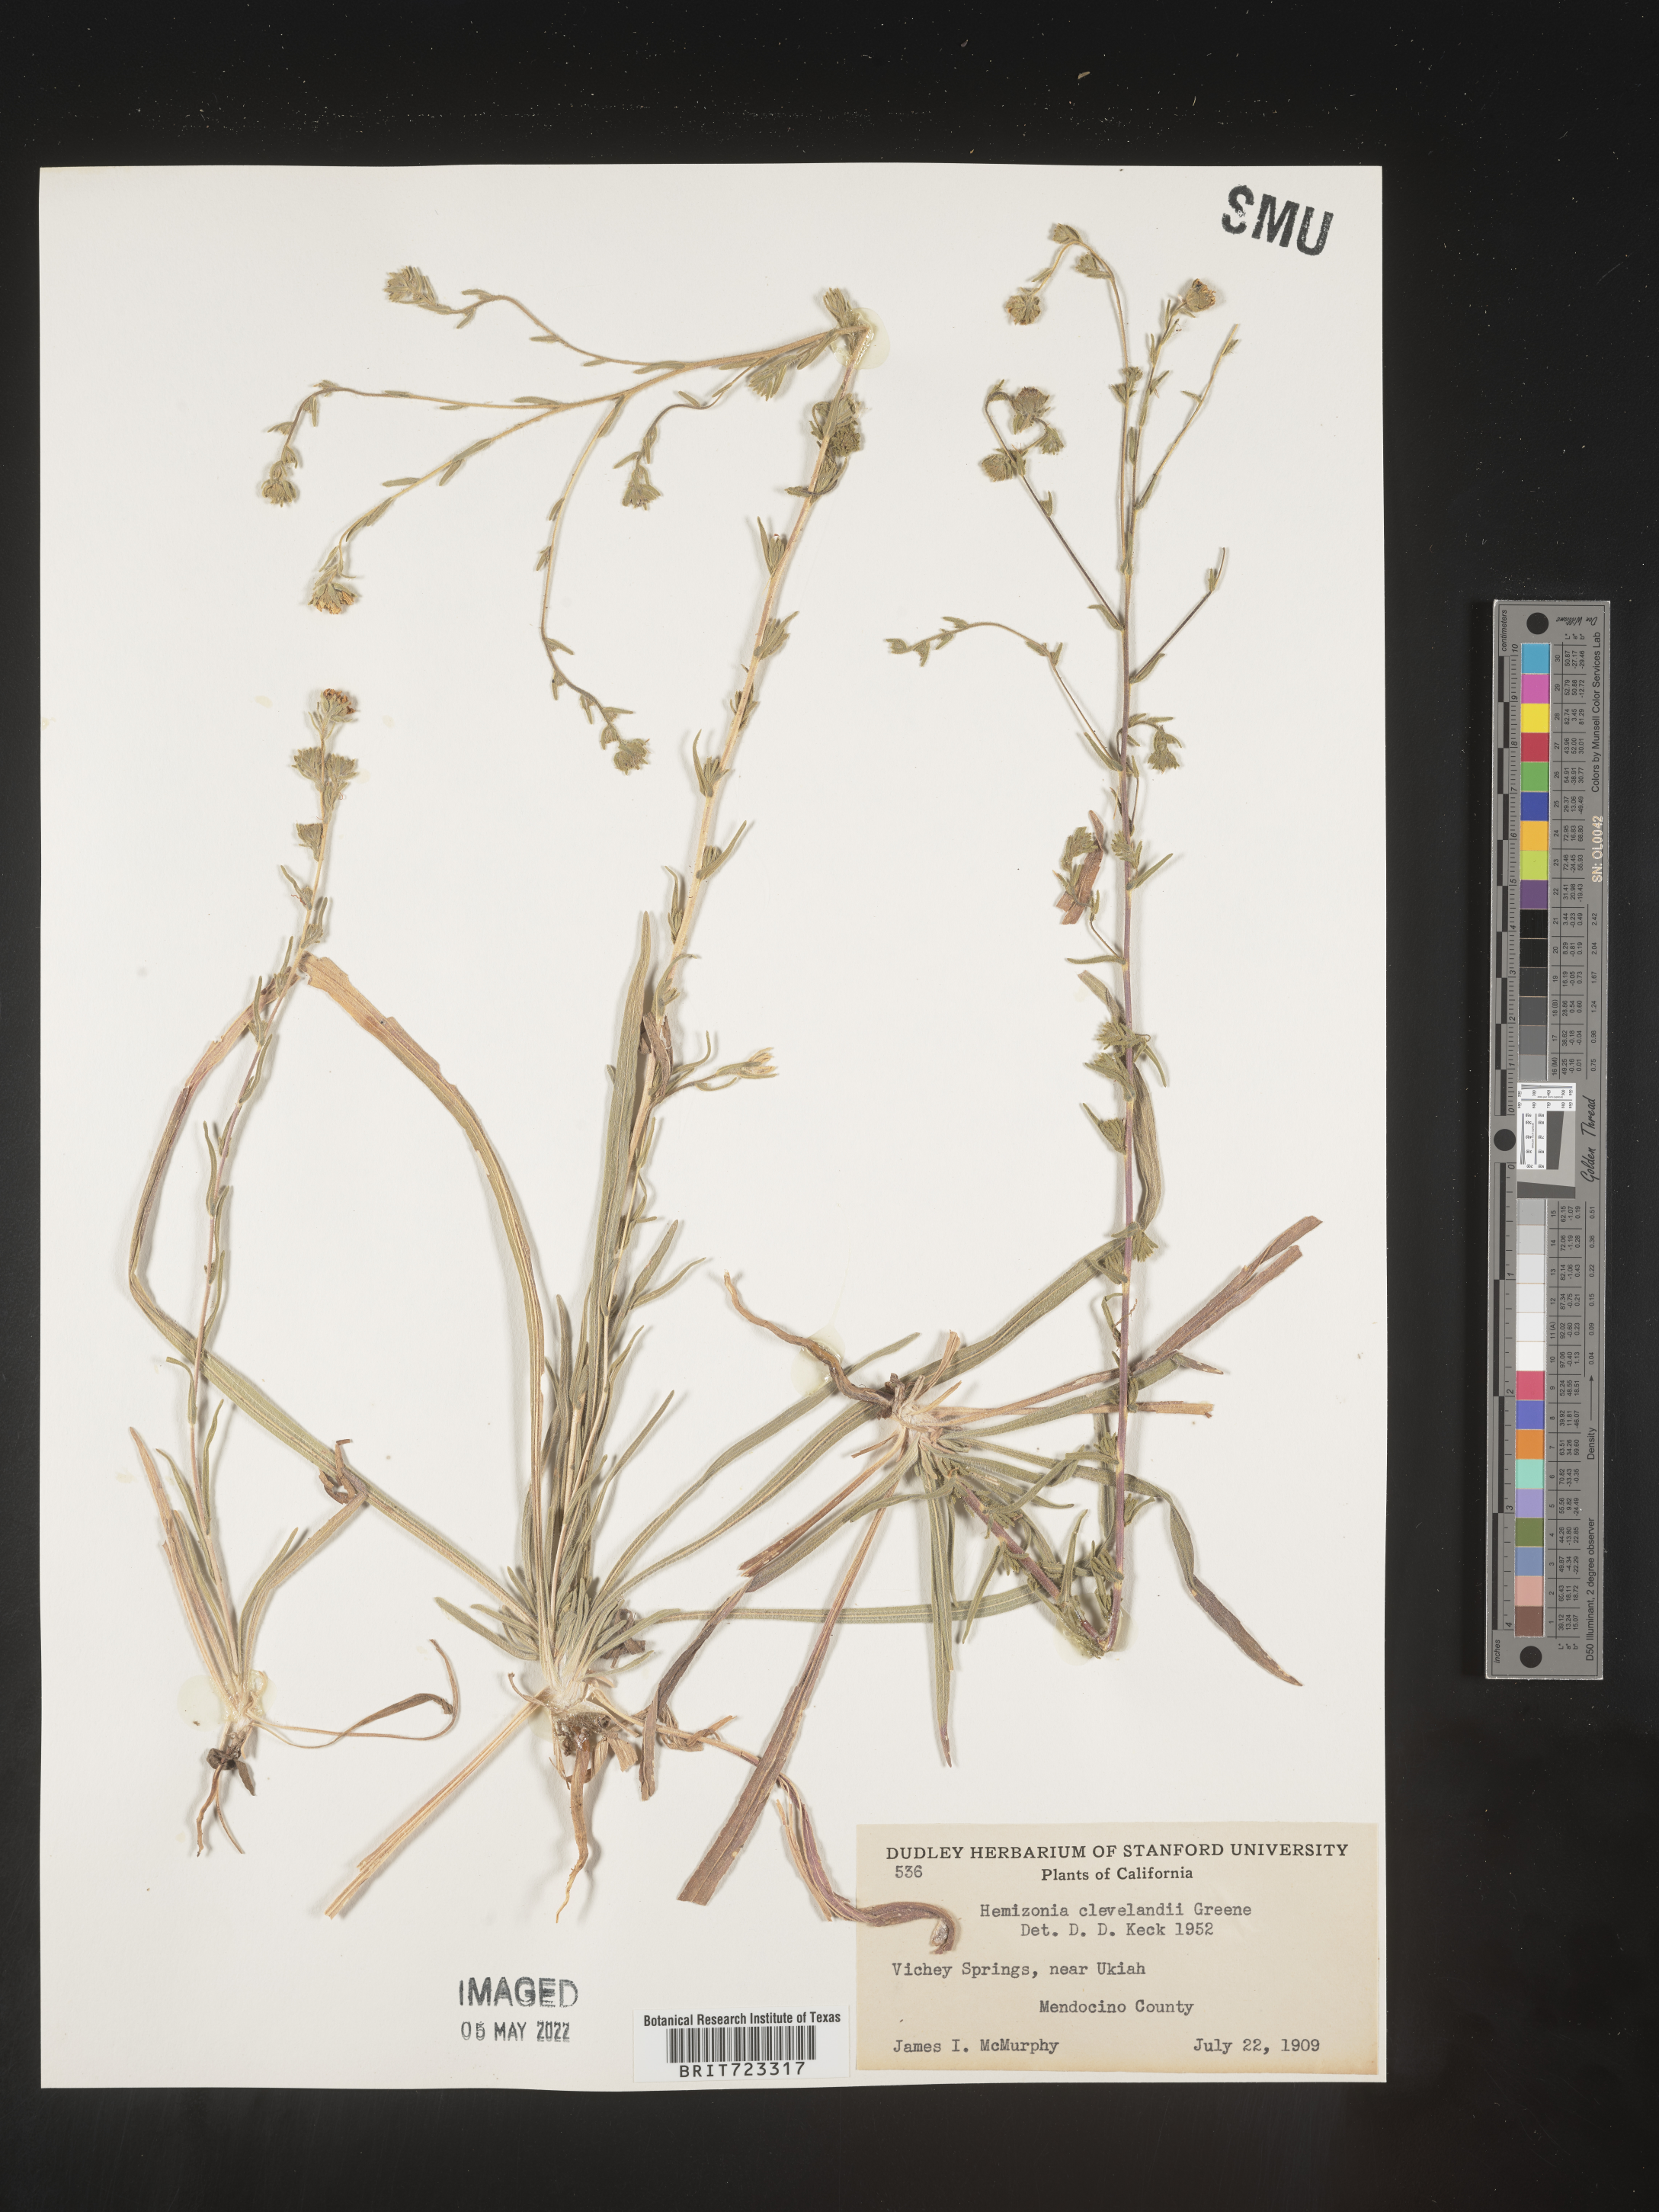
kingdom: Plantae
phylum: Tracheophyta
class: Magnoliopsida
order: Asterales
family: Asteraceae
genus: Hemizonia
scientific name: Hemizonia
